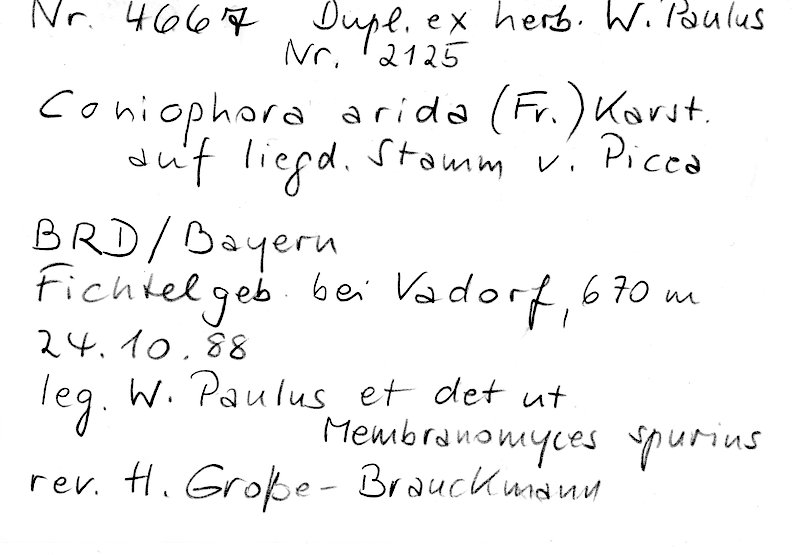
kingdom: Fungi
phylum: Basidiomycota
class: Agaricomycetes
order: Boletales
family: Coniophoraceae
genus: Coniophora
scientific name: Coniophora arida
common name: Dry duster
